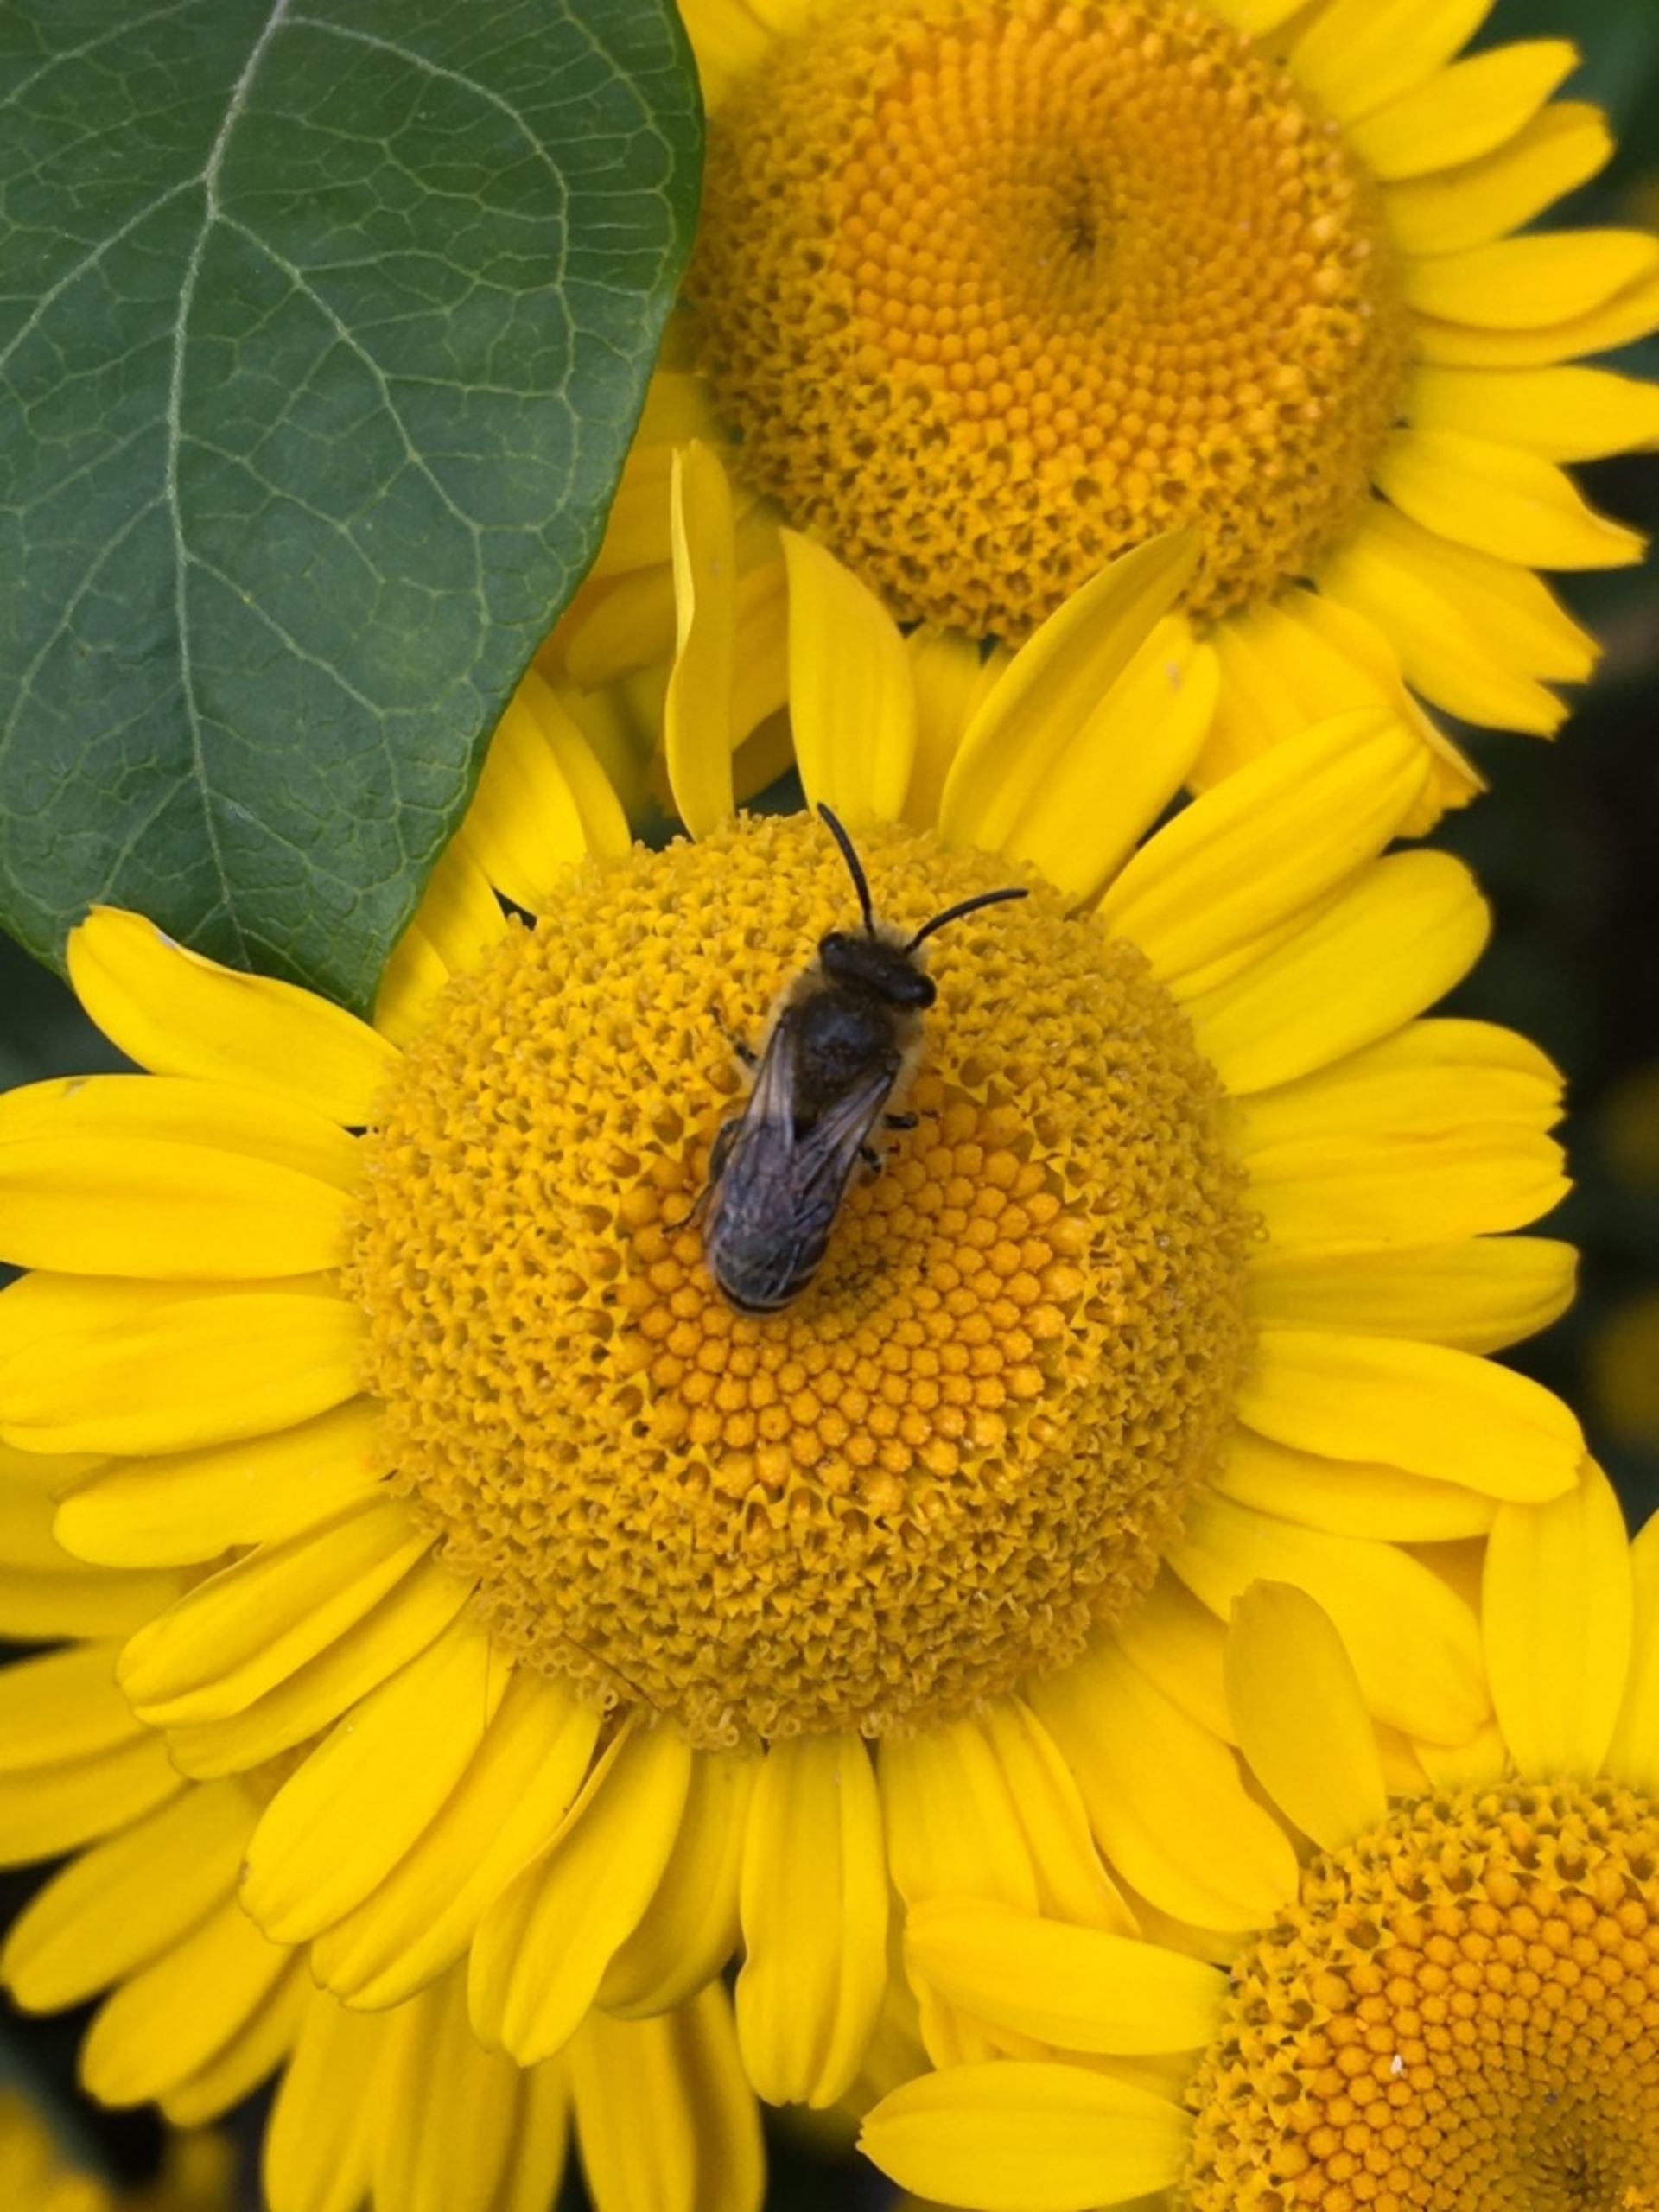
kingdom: Plantae
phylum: Tracheophyta
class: Magnoliopsida
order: Asterales
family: Asteraceae
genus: Cota
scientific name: Cota tinctoria
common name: Farve-gåseurt
